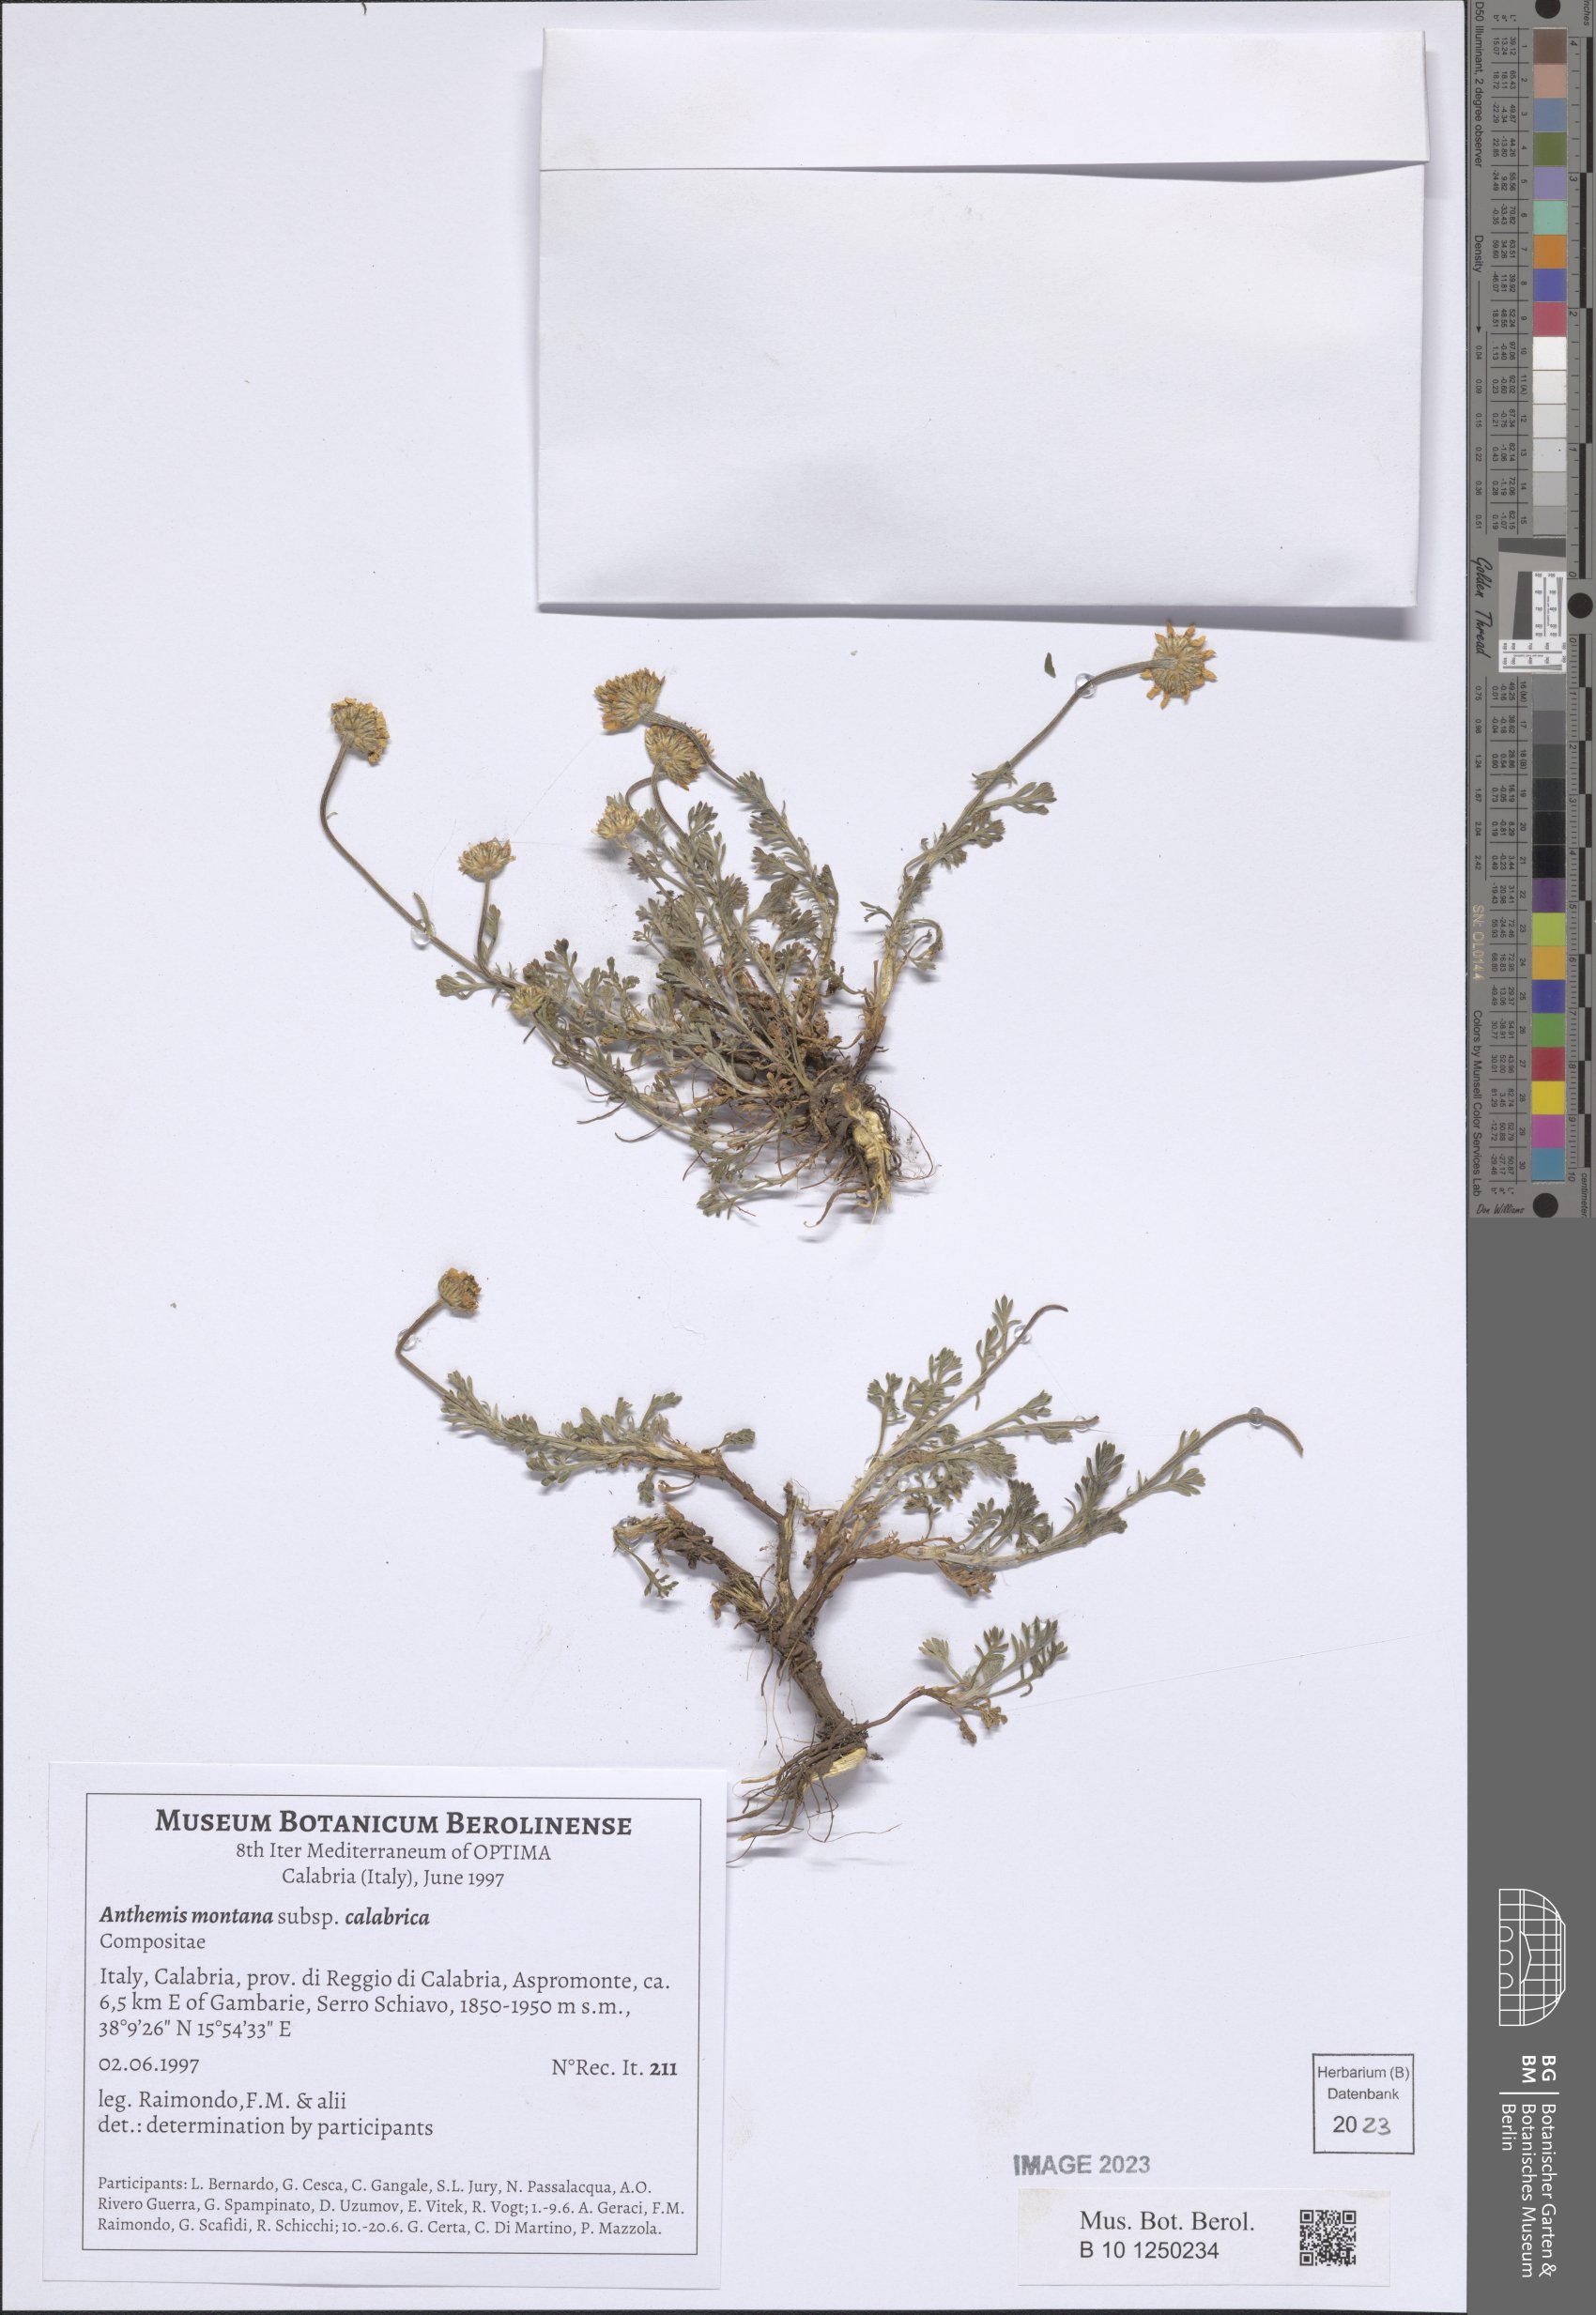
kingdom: Plantae
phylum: Tracheophyta
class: Magnoliopsida
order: Asterales
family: Asteraceae
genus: Anthemis
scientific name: Anthemis cretica
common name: Mountain dog-daisy
